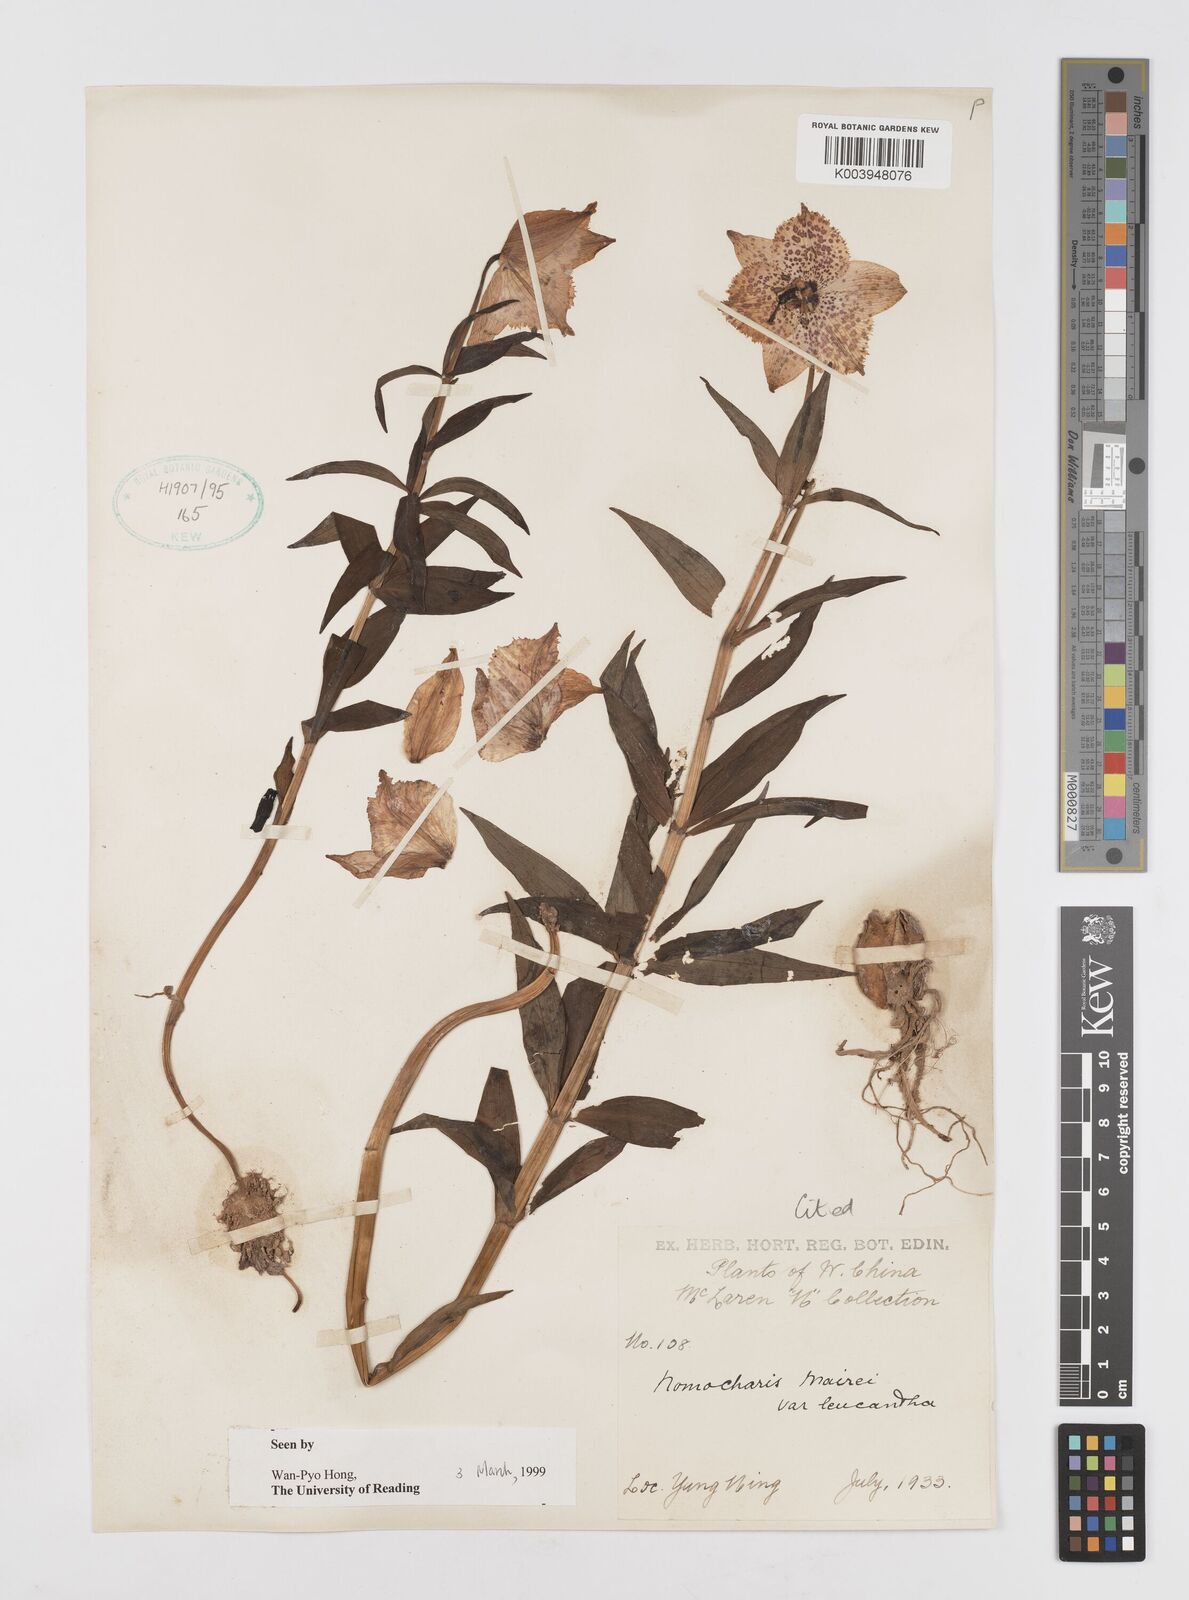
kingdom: Plantae
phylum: Tracheophyta
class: Liliopsida
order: Liliales
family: Liliaceae
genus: Lilium
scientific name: Lilium pardanthinum
